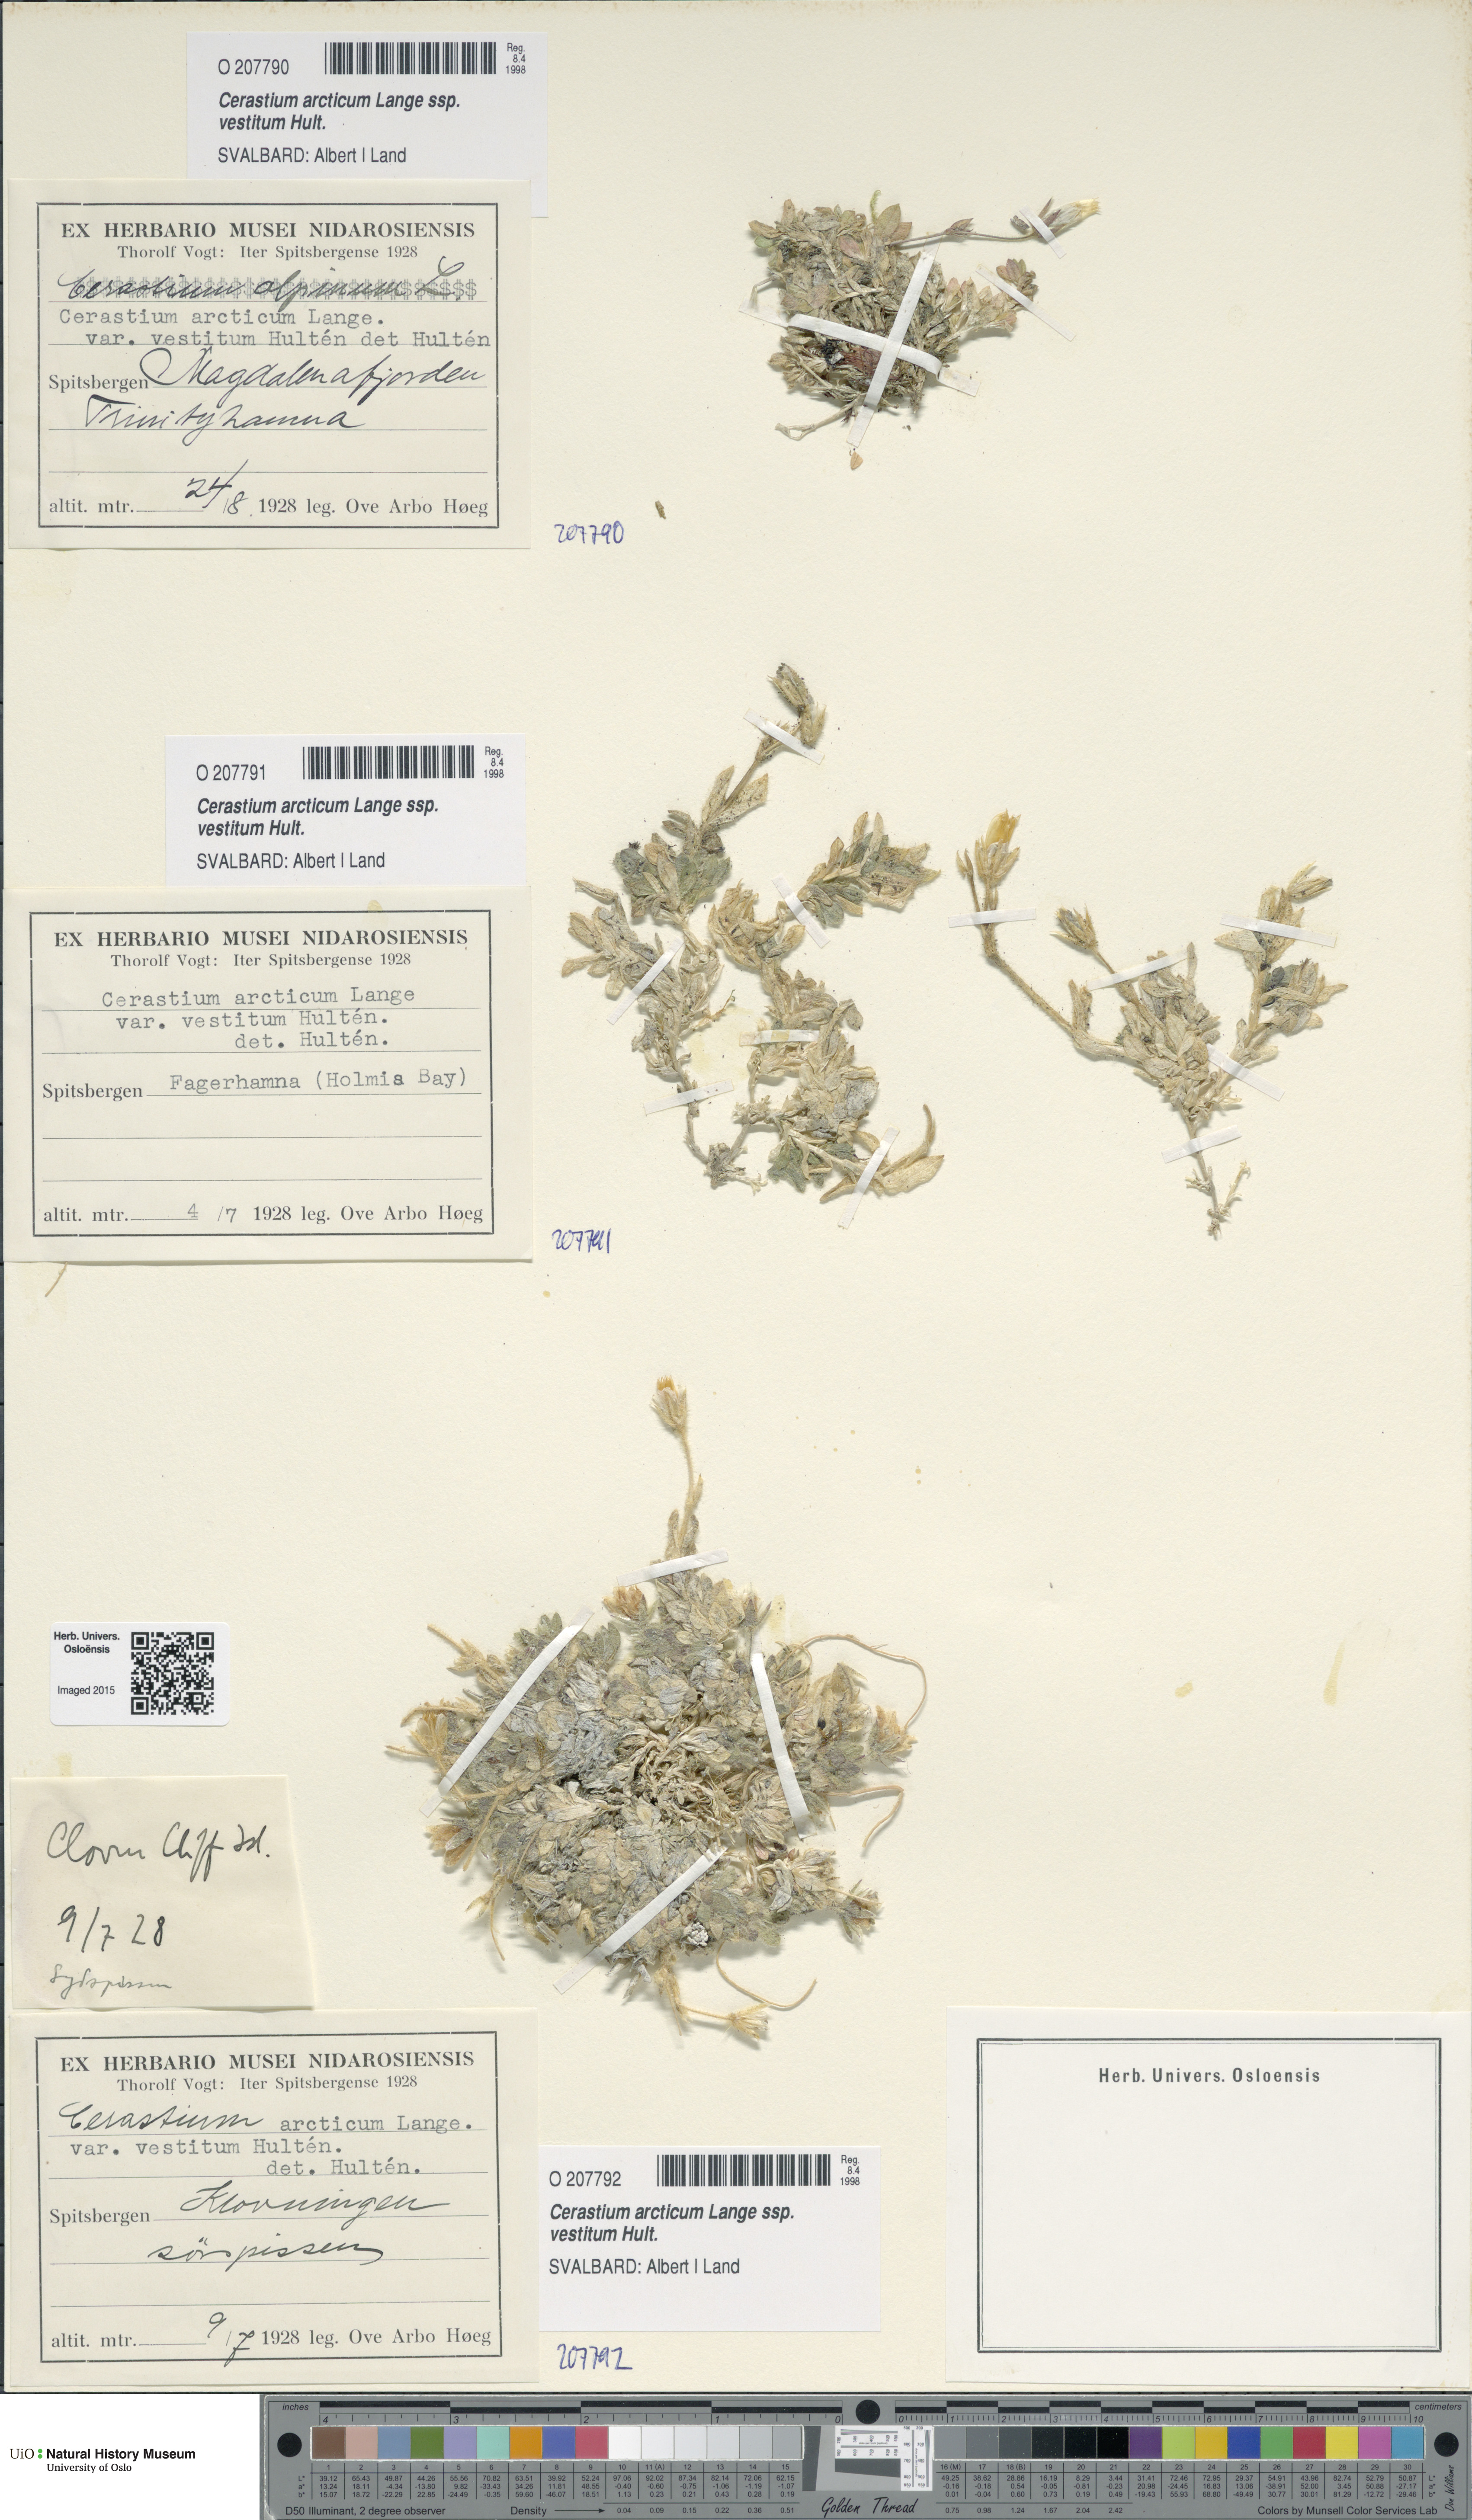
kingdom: Plantae
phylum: Tracheophyta
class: Magnoliopsida
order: Caryophyllales
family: Caryophyllaceae
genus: Cerastium
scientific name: Cerastium arcticum
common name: Arctic mouse-ear
